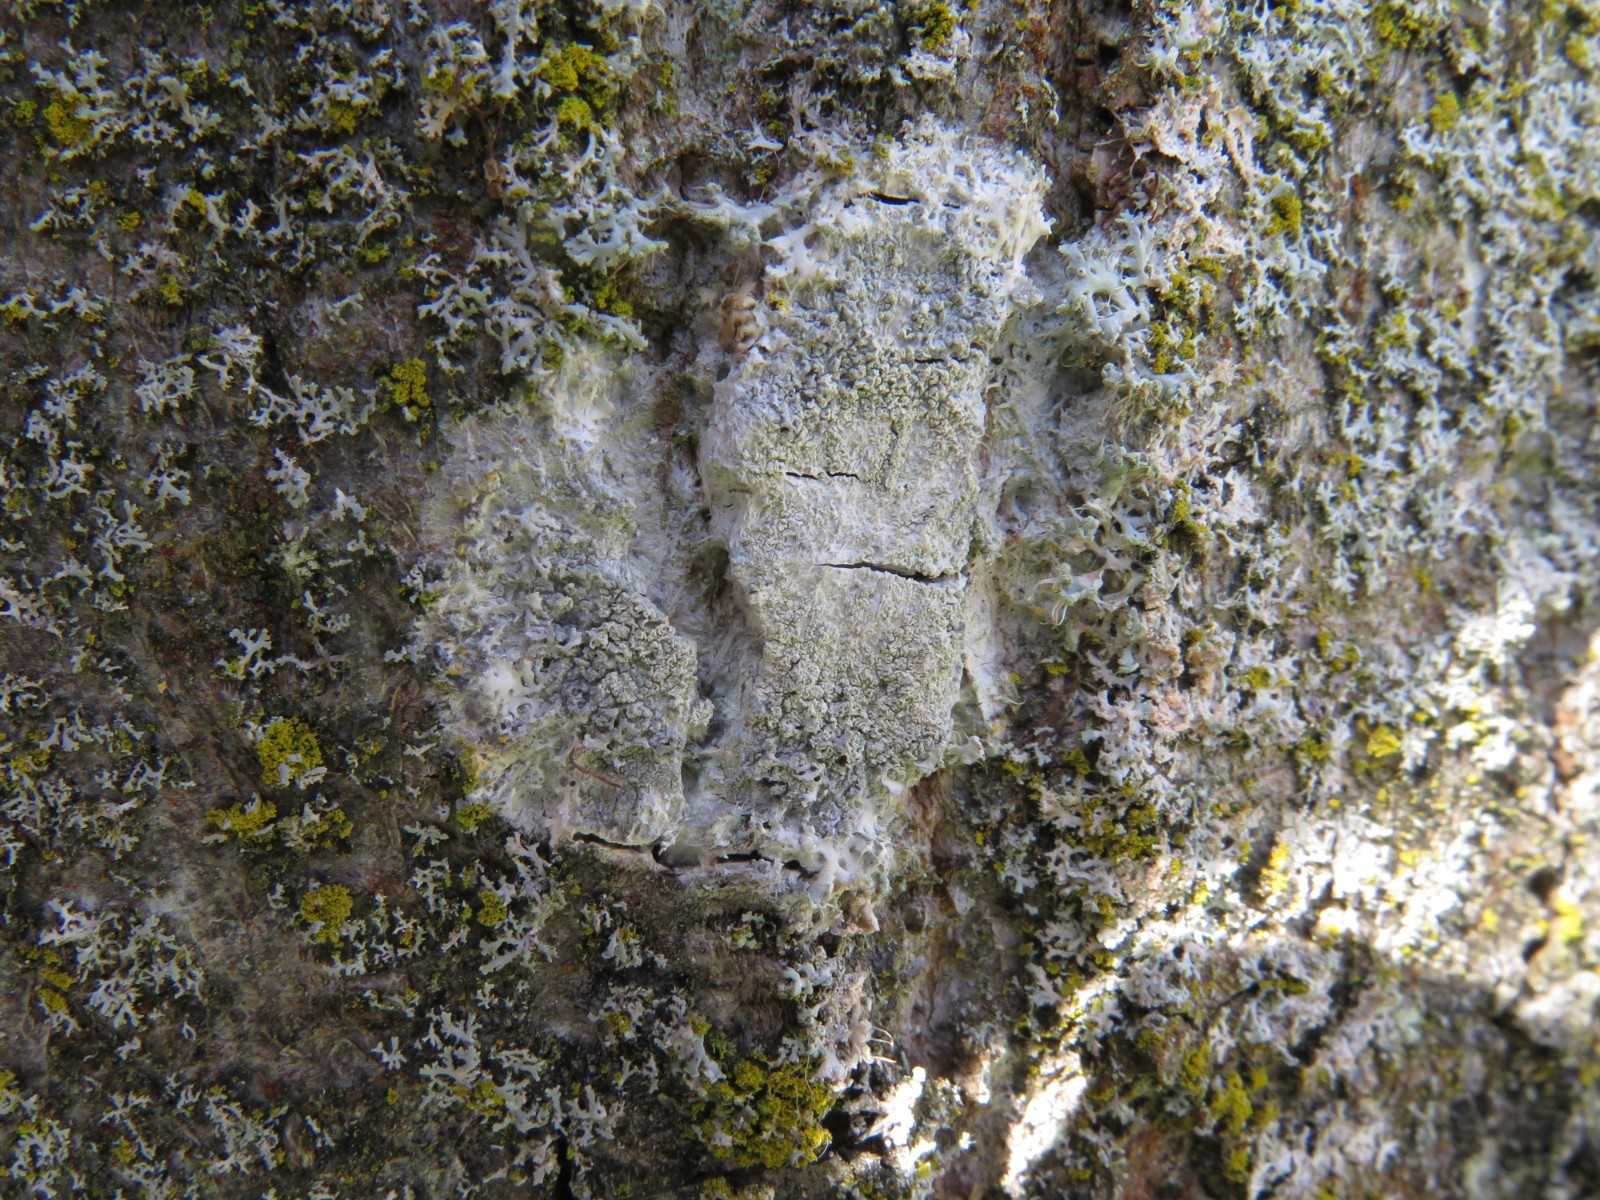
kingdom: Fungi
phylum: Ascomycota
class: Lecanoromycetes
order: Ostropales
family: Phlyctidaceae
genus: Phlyctis
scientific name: Phlyctis argena
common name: almindelig sølvlav
